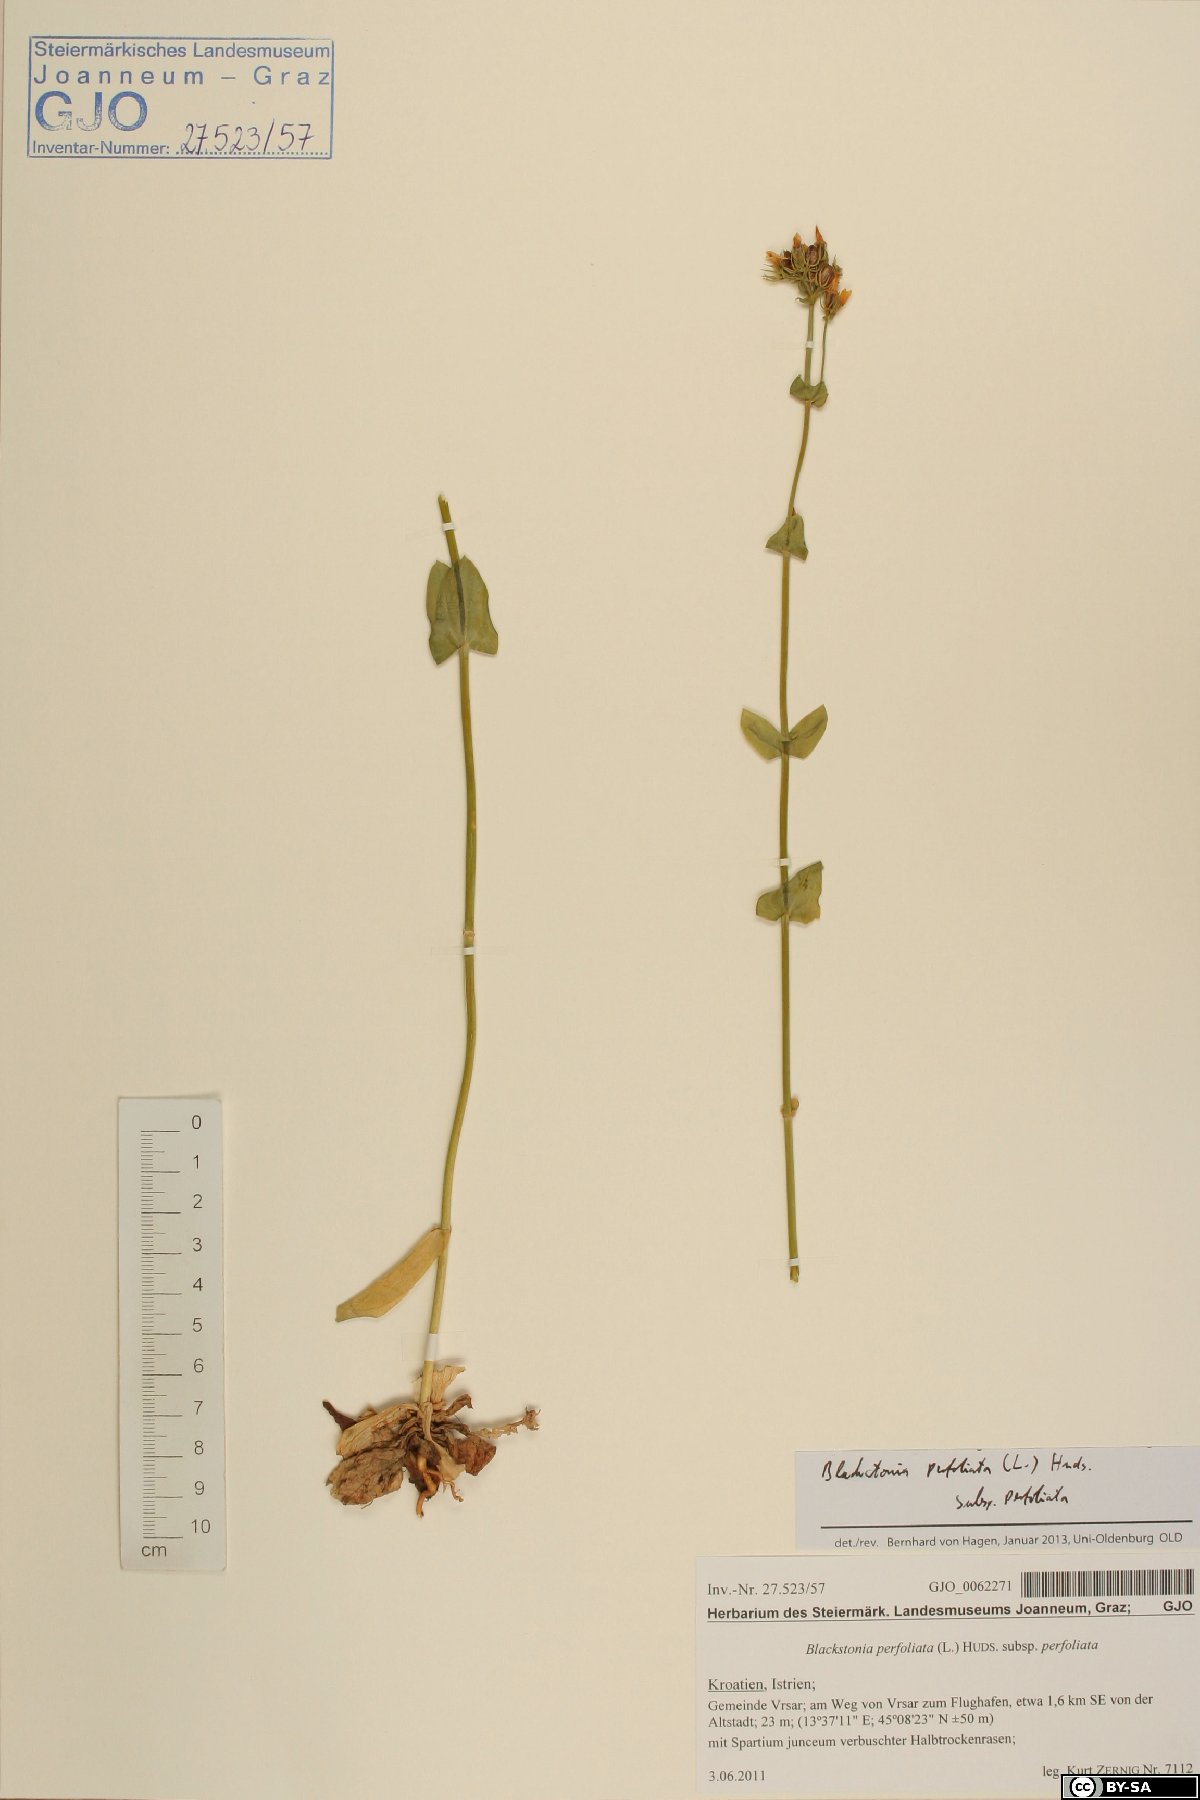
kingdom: Plantae
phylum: Tracheophyta
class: Magnoliopsida
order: Gentianales
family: Gentianaceae
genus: Blackstonia
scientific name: Blackstonia perfoliata
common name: Yellow-wort
